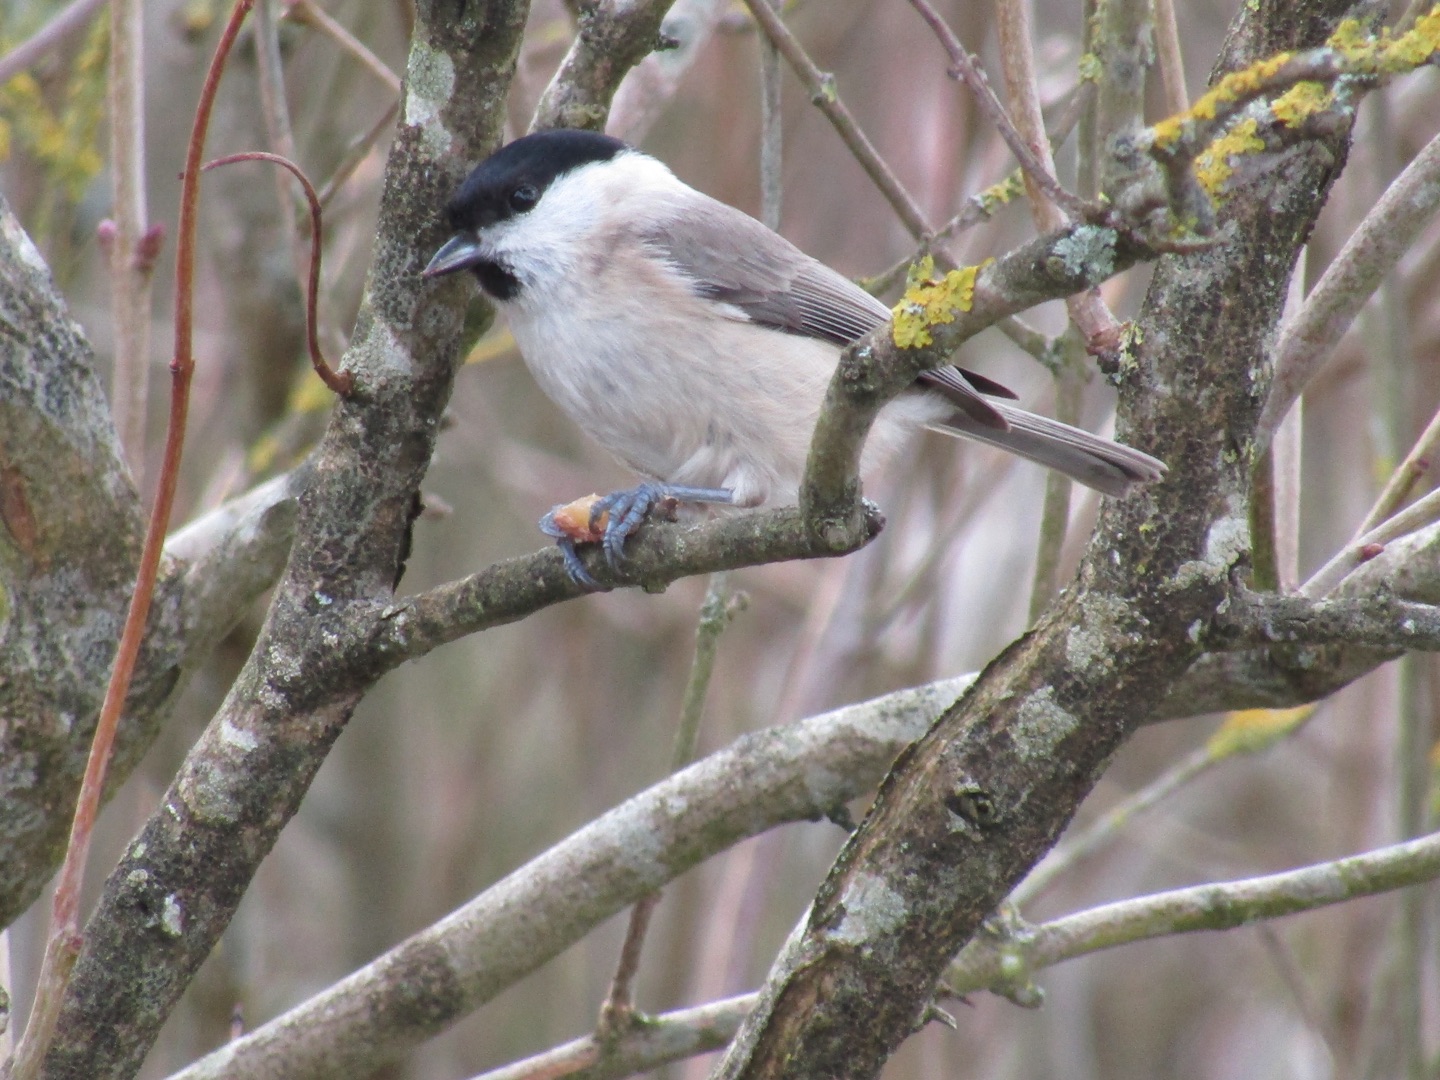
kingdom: Animalia
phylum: Chordata
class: Aves
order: Passeriformes
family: Paridae
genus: Poecile
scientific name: Poecile palustris
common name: Sumpmejse
